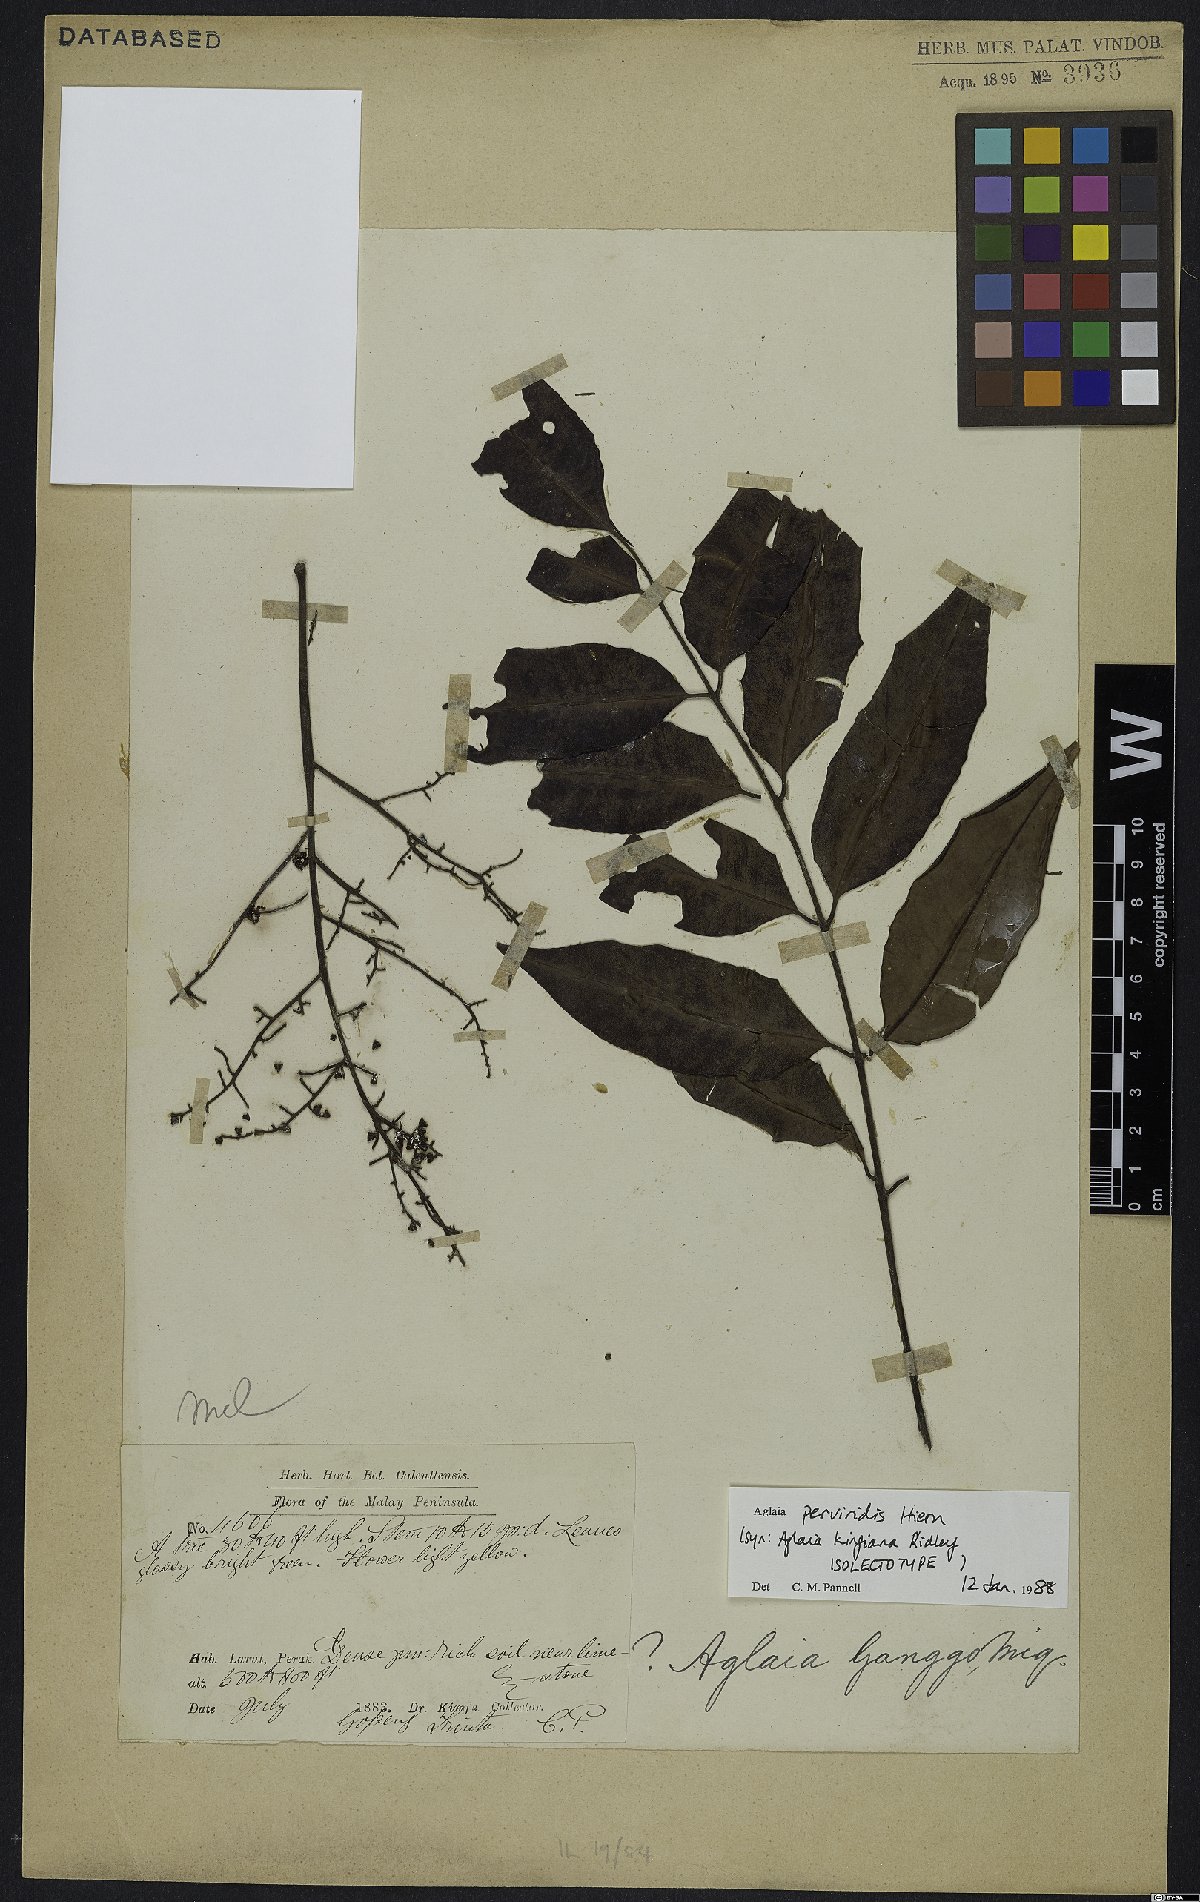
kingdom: Plantae
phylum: Tracheophyta
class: Magnoliopsida
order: Sapindales
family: Meliaceae
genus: Aglaia
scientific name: Aglaia perviridis
